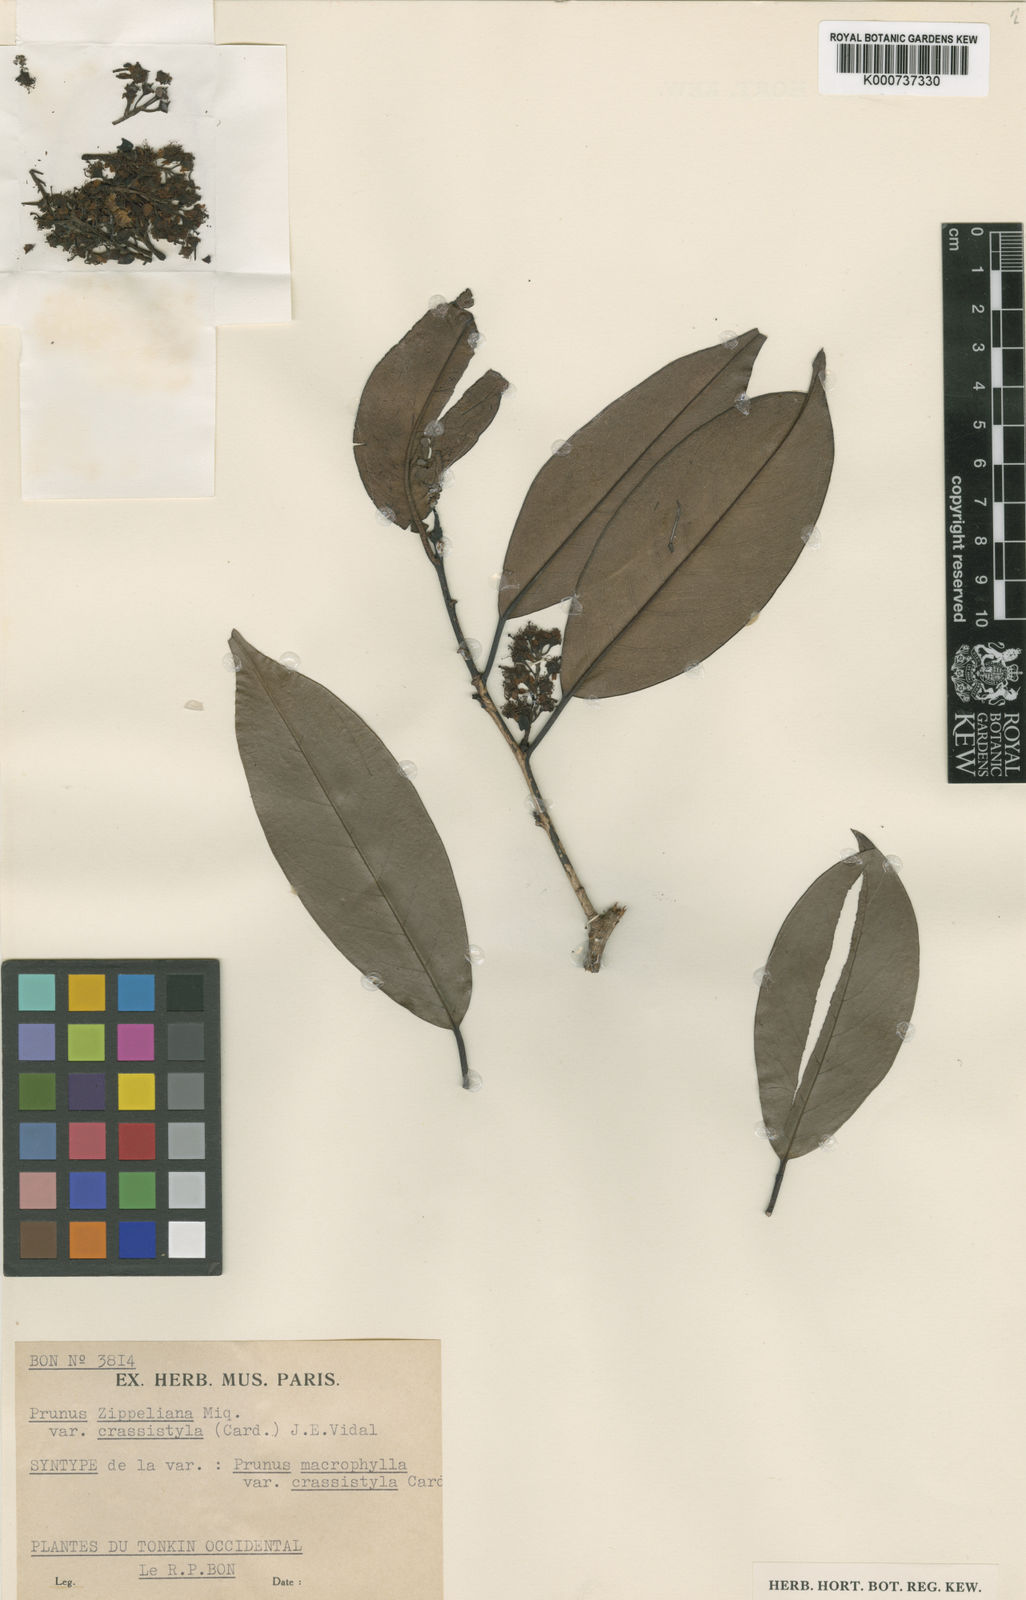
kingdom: Plantae
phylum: Tracheophyta
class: Magnoliopsida
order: Rosales
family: Rosaceae
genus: Prunus
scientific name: Prunus zippeliana
